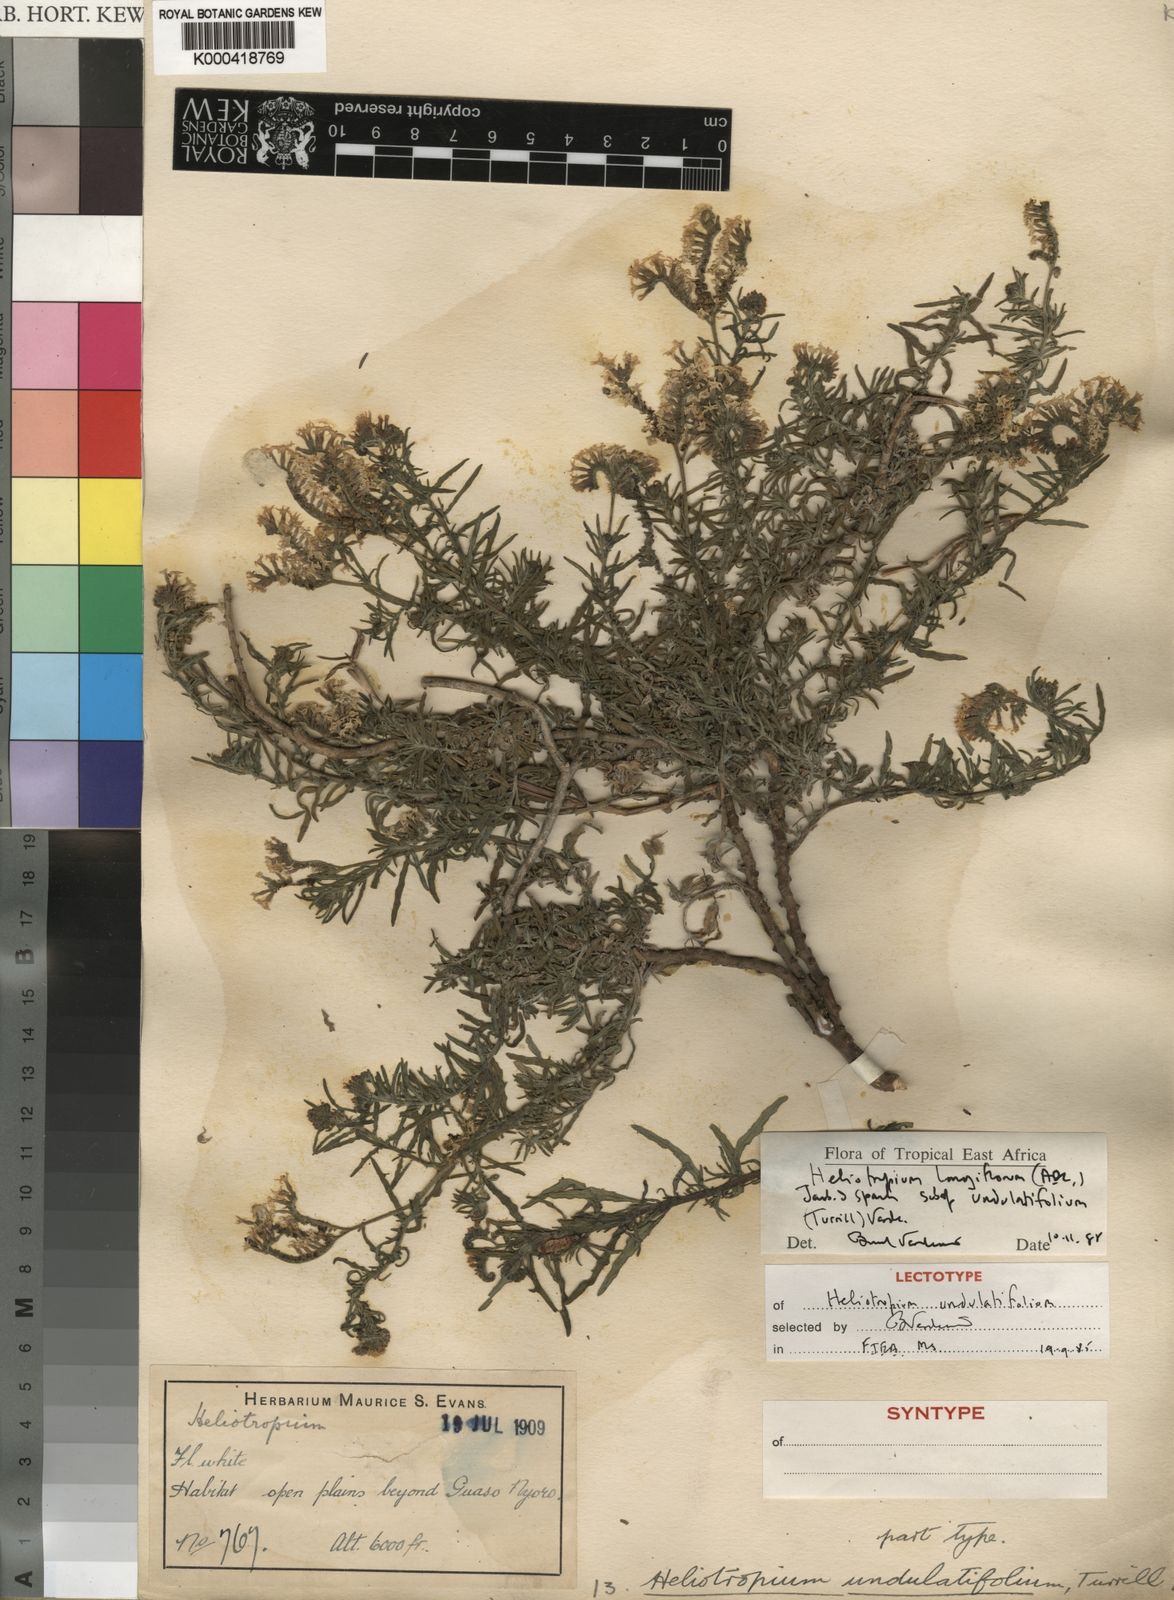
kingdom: Plantae
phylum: Tracheophyta
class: Magnoliopsida
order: Boraginales
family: Heliotropiaceae
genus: Heliotropium
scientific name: Heliotropium longiflorum
